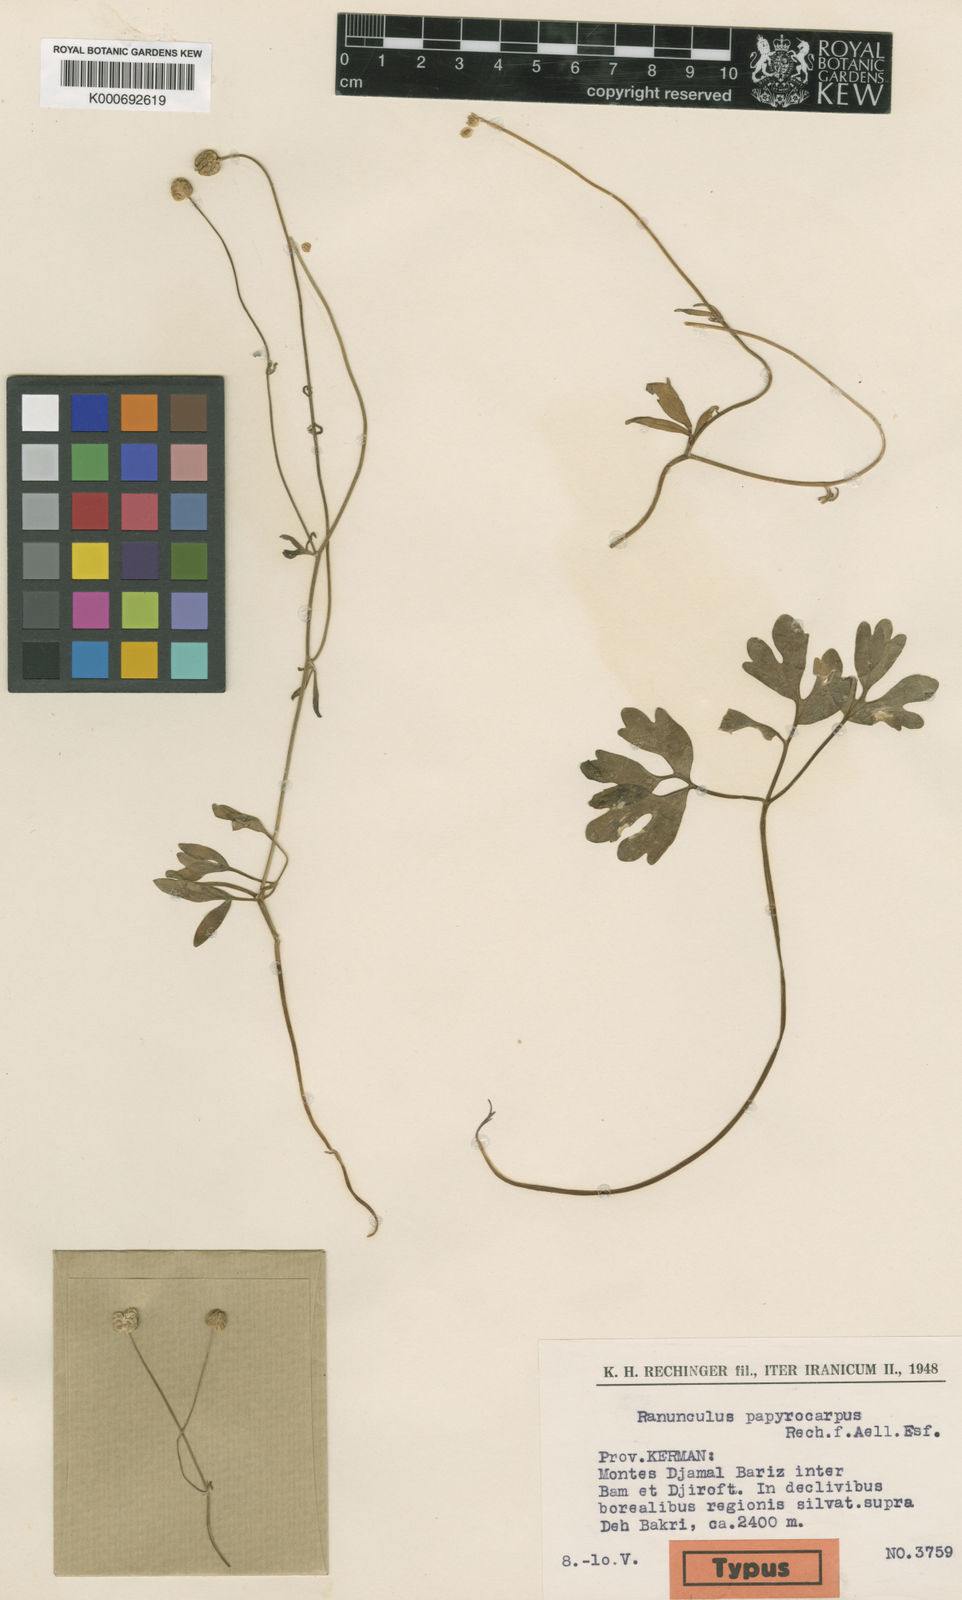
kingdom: Plantae
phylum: Tracheophyta
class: Magnoliopsida
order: Ranunculales
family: Ranunculaceae
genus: Ranunculus
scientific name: Ranunculus papyrocarpus
